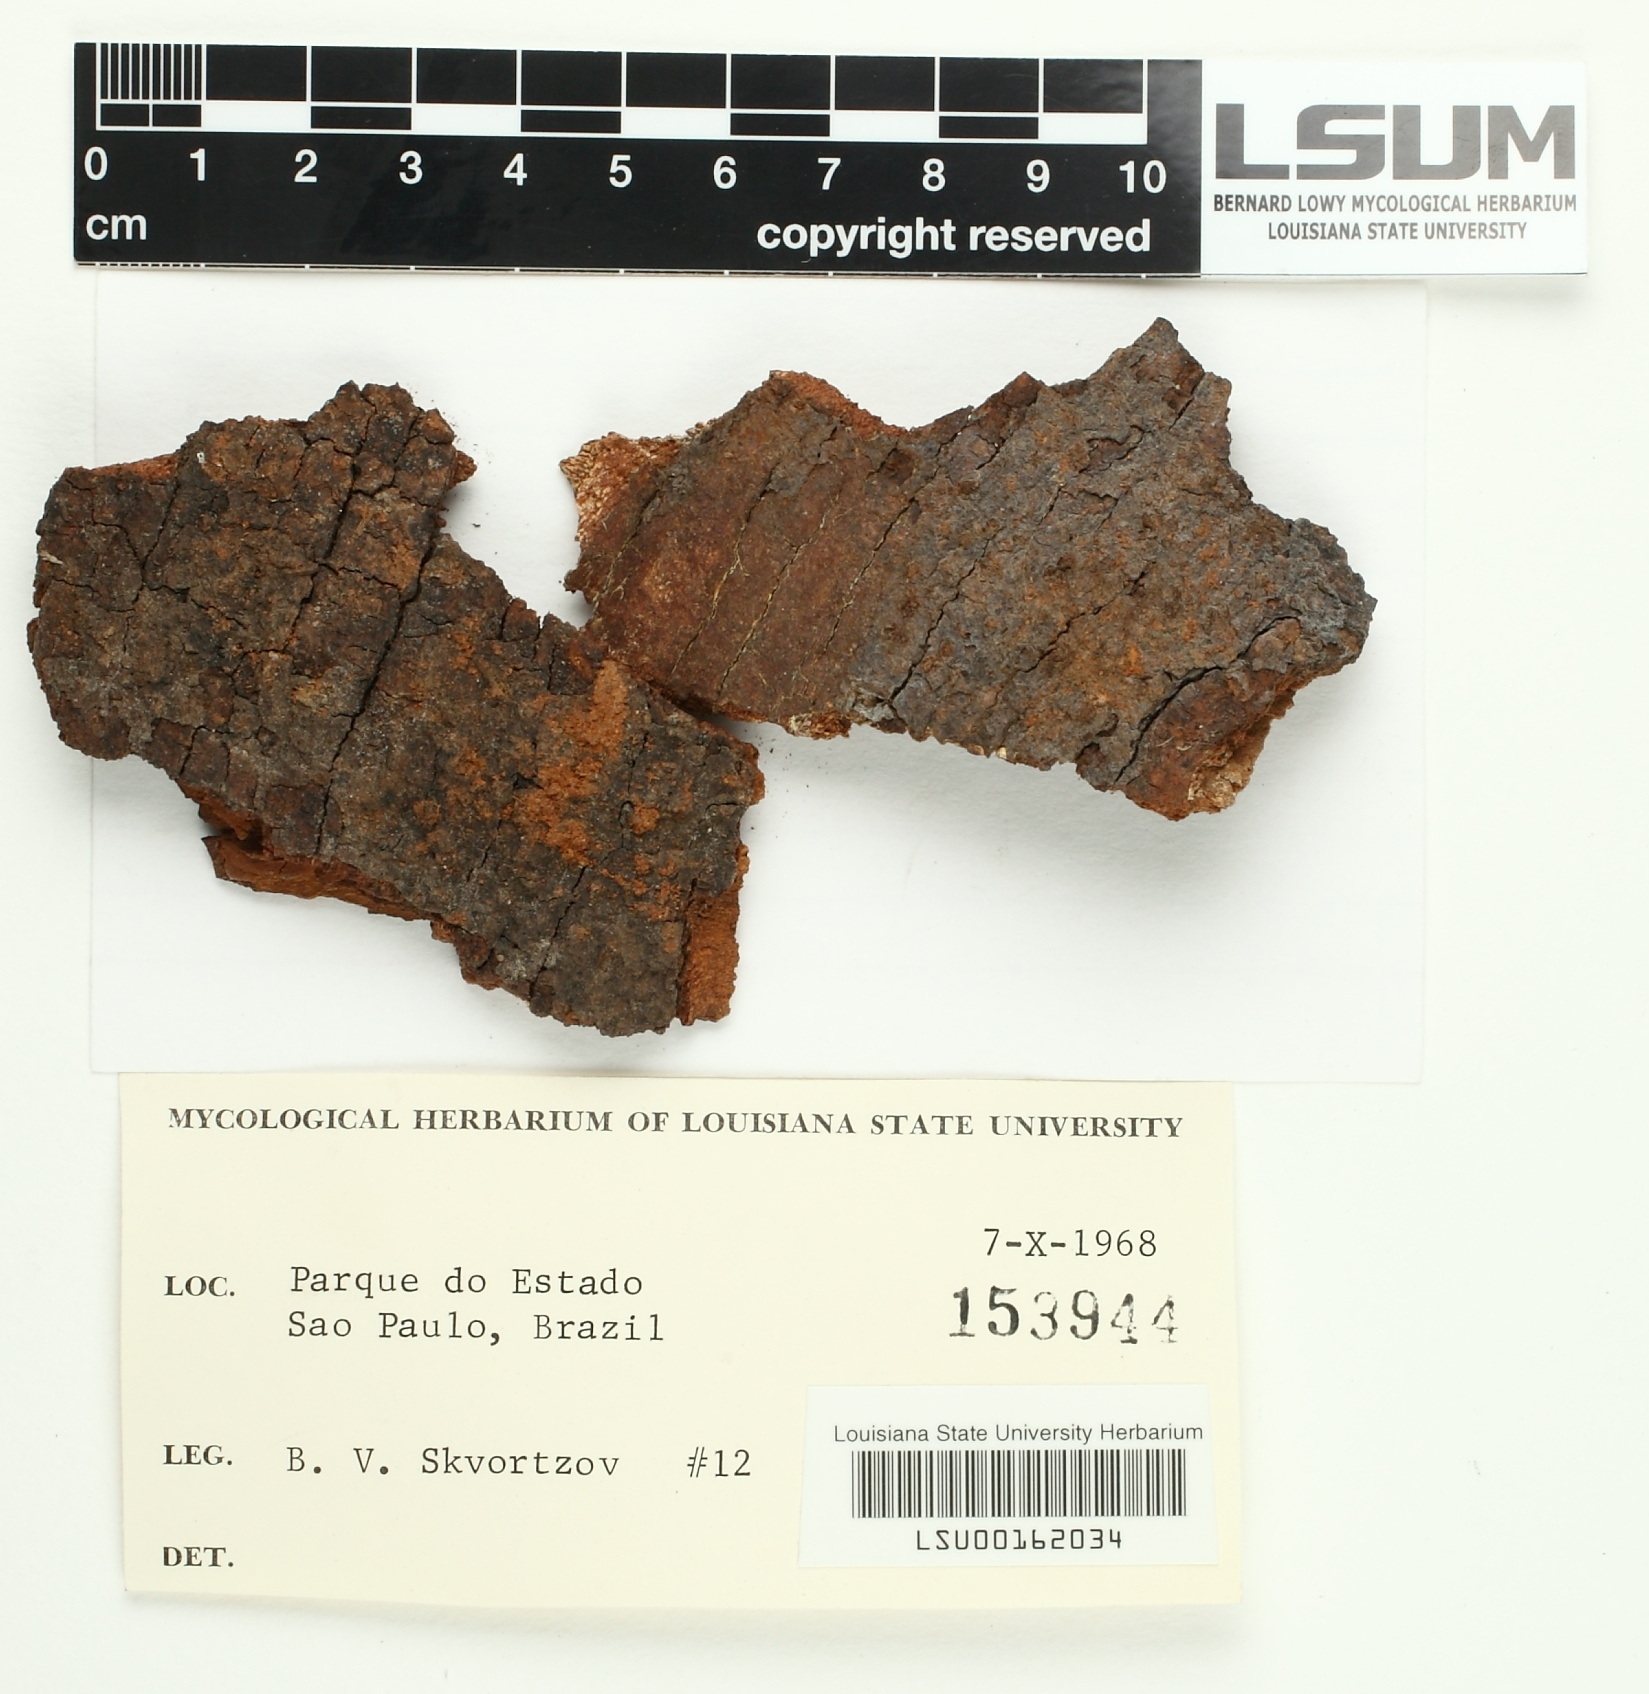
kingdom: Fungi
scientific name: Fungi
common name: Fungi
